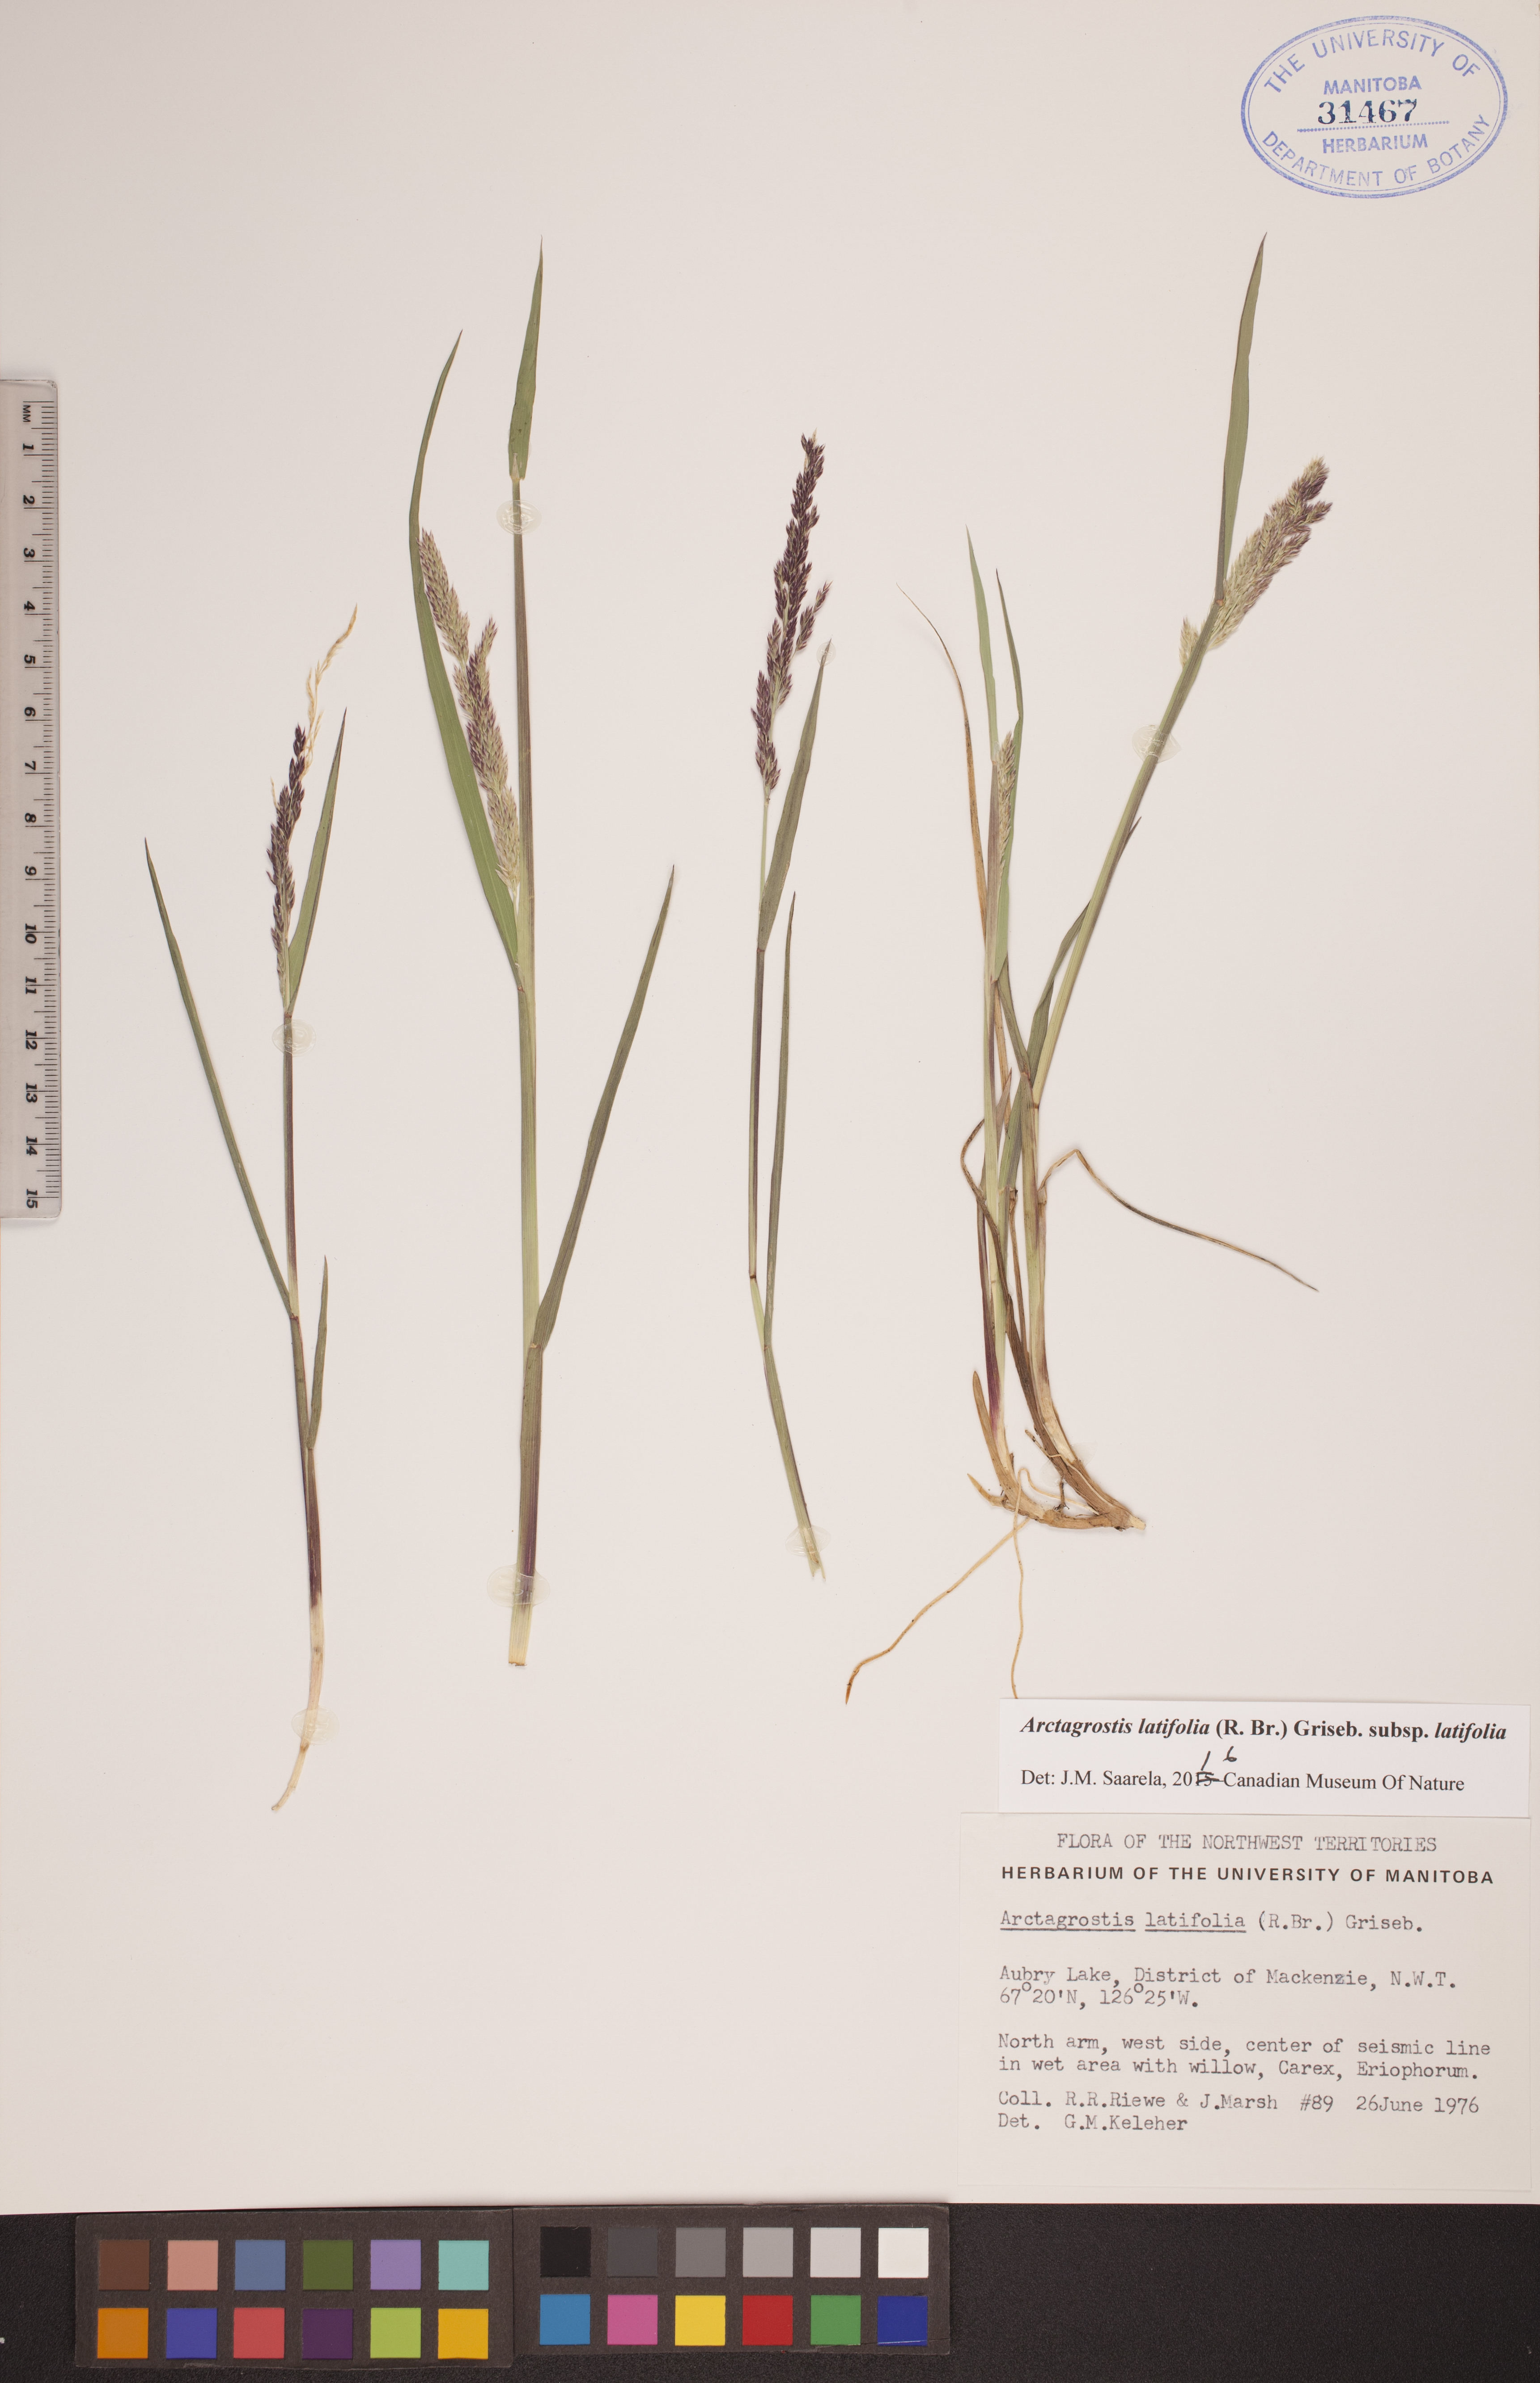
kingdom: Plantae
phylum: Tracheophyta
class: Liliopsida
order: Poales
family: Poaceae
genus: Arctagrostis
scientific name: Arctagrostis latifolia
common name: Arctic grass
